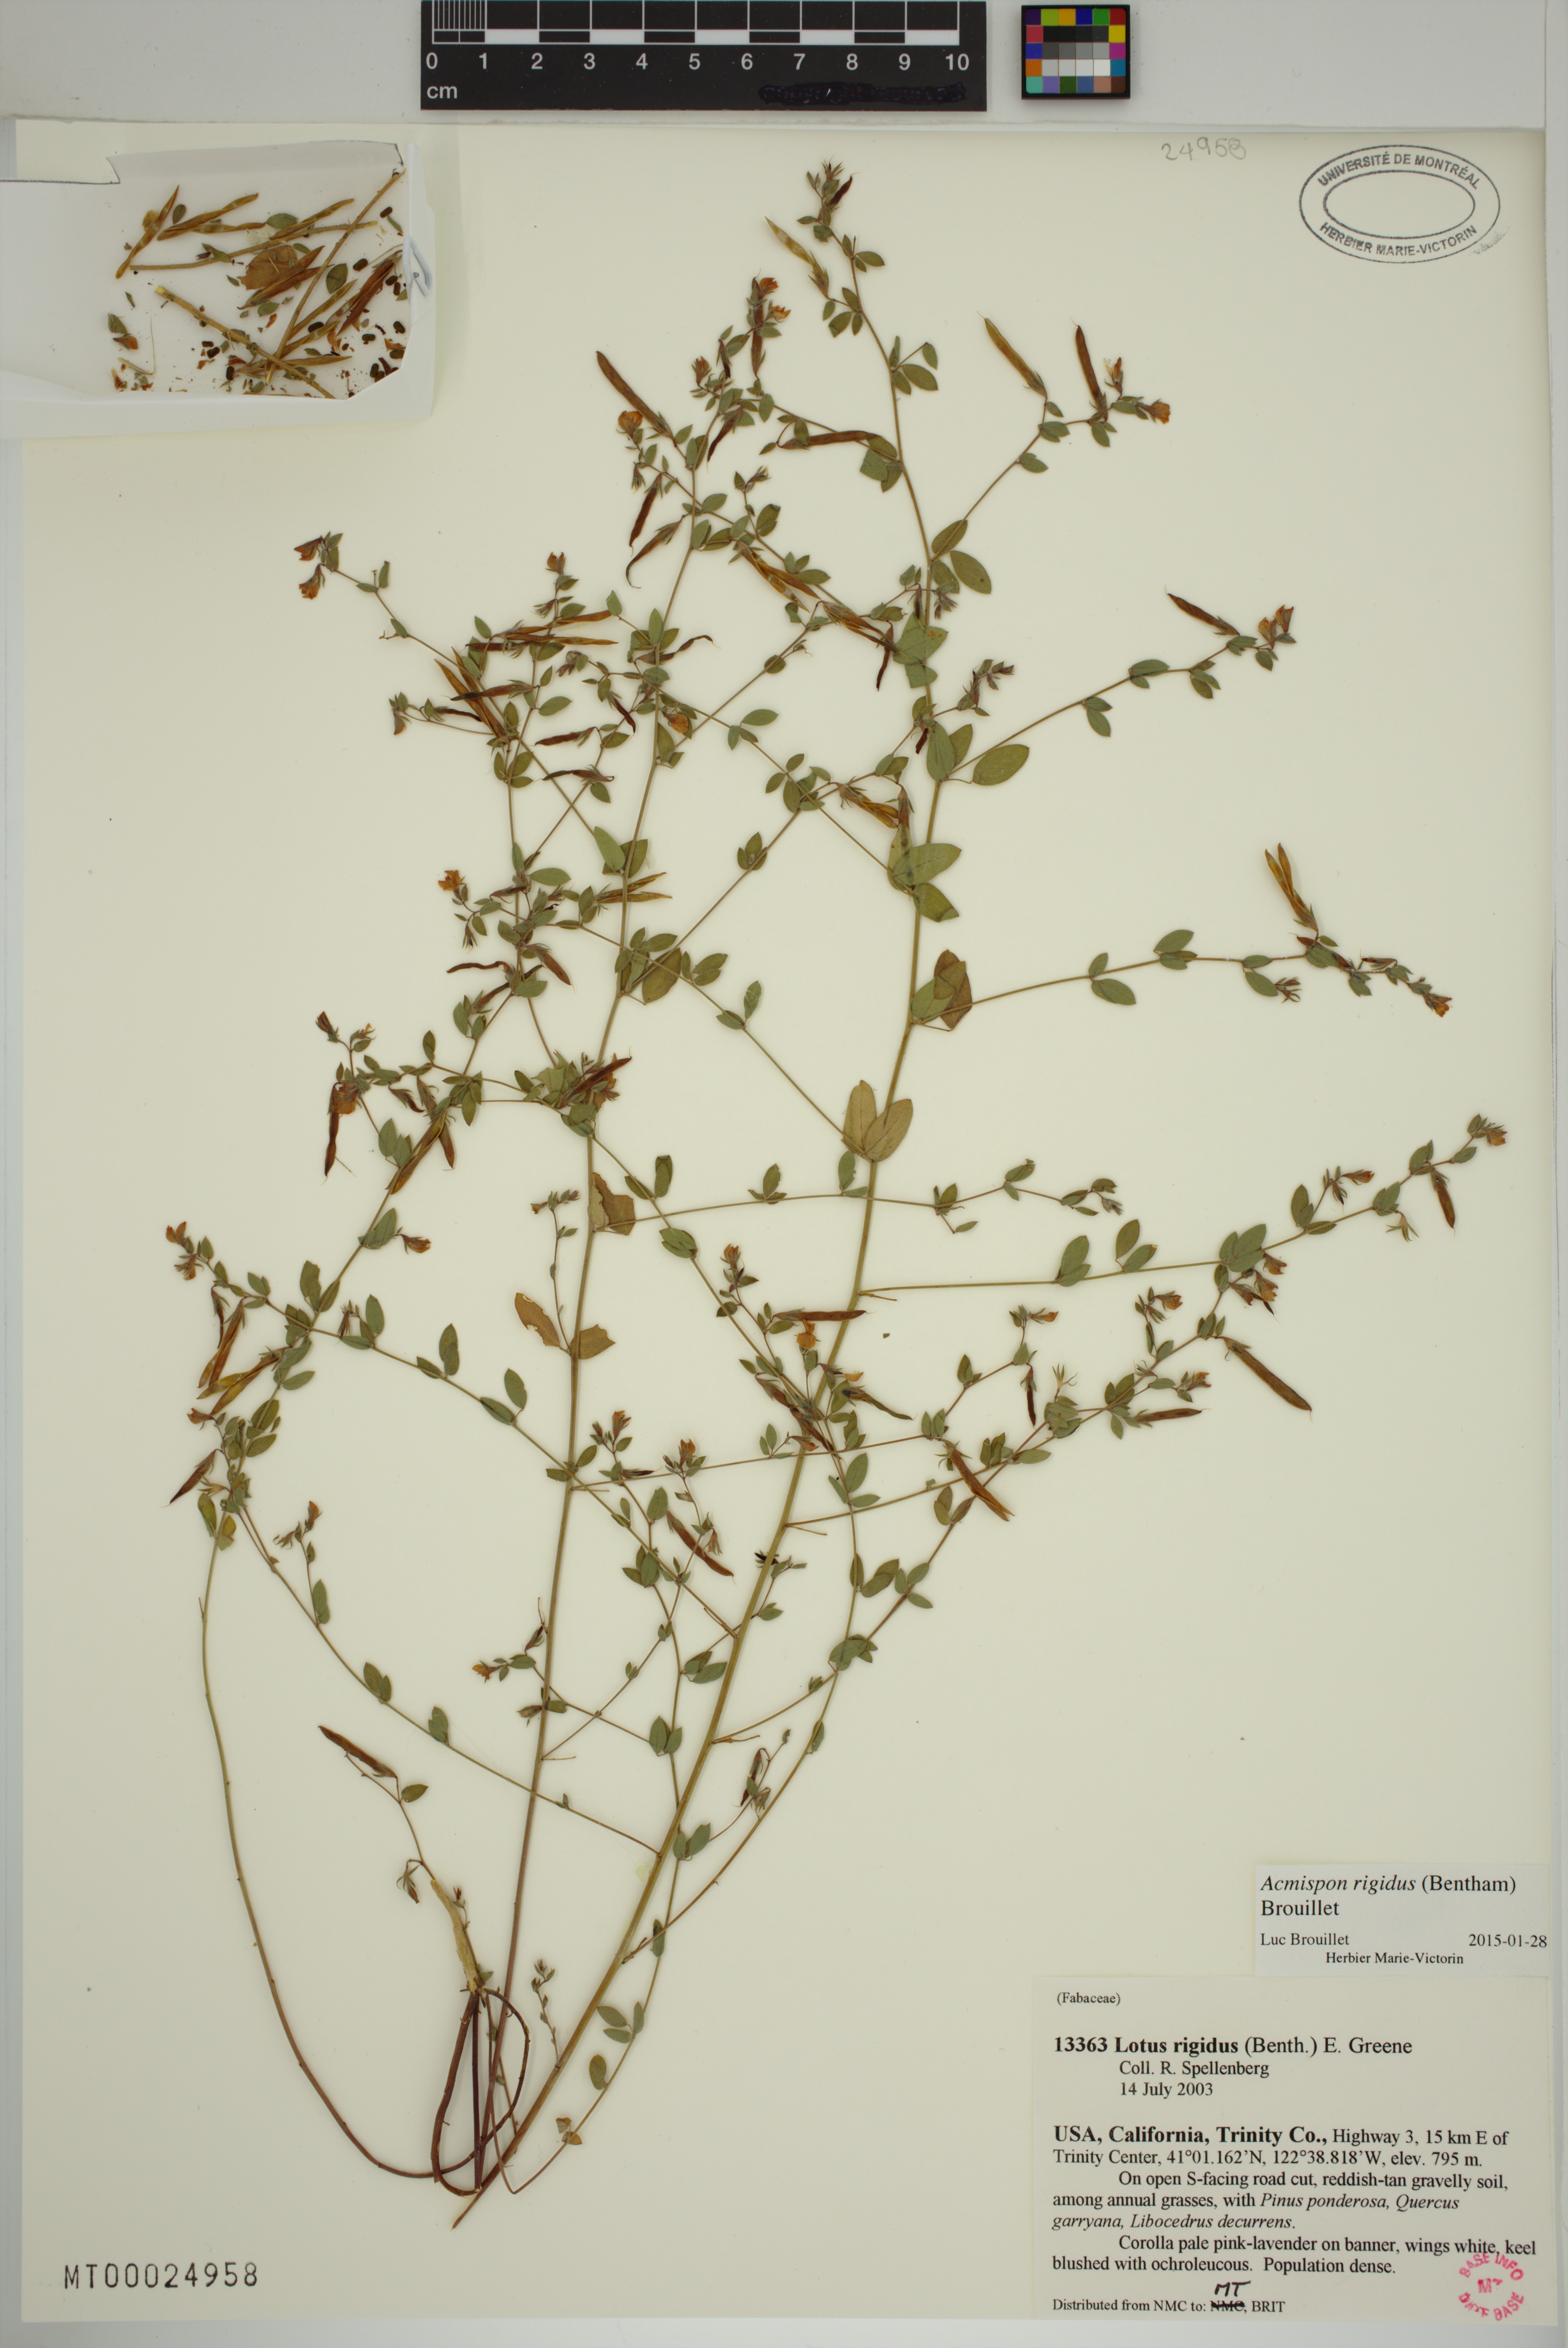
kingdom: Plantae
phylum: Tracheophyta
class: Magnoliopsida
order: Fabales
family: Fabaceae
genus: Acmispon
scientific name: Acmispon rigidus
